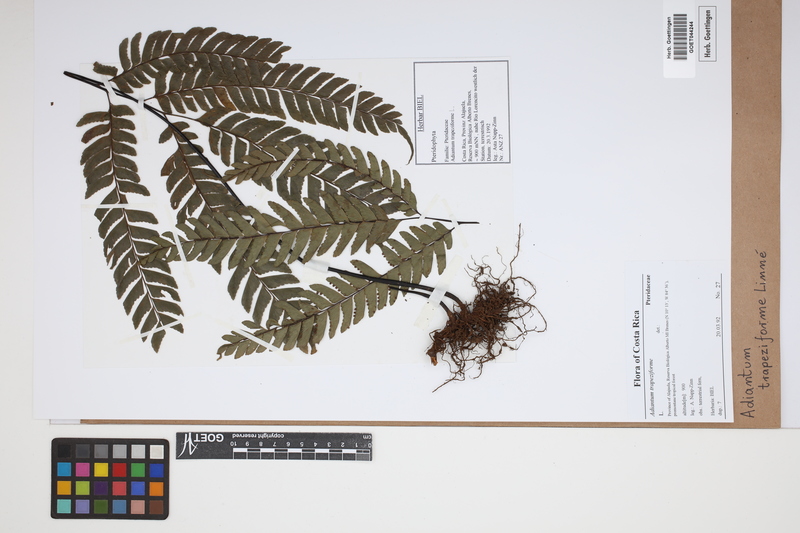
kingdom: Plantae
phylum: Tracheophyta
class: Polypodiopsida
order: Polypodiales
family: Pteridaceae
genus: Adiantum
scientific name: Adiantum trapeziforme
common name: Diamond maidenhair
